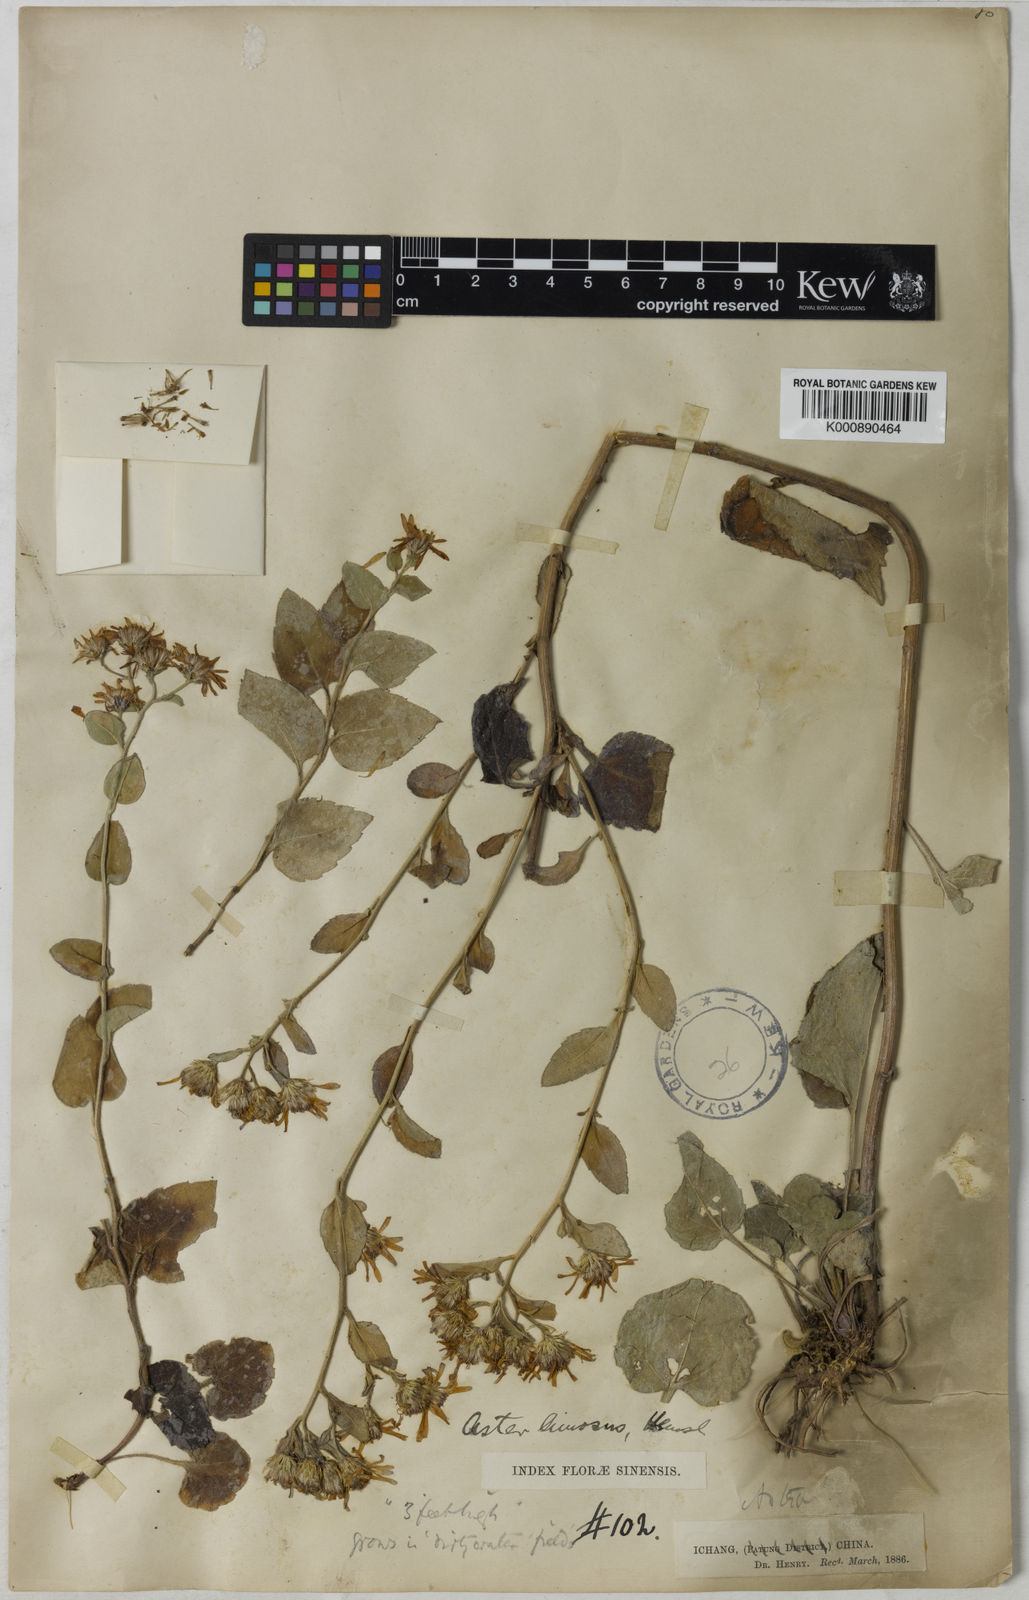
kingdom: Plantae
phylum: Tracheophyta
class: Magnoliopsida
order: Asterales
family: Asteraceae
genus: Aster
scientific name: Aster limosus
